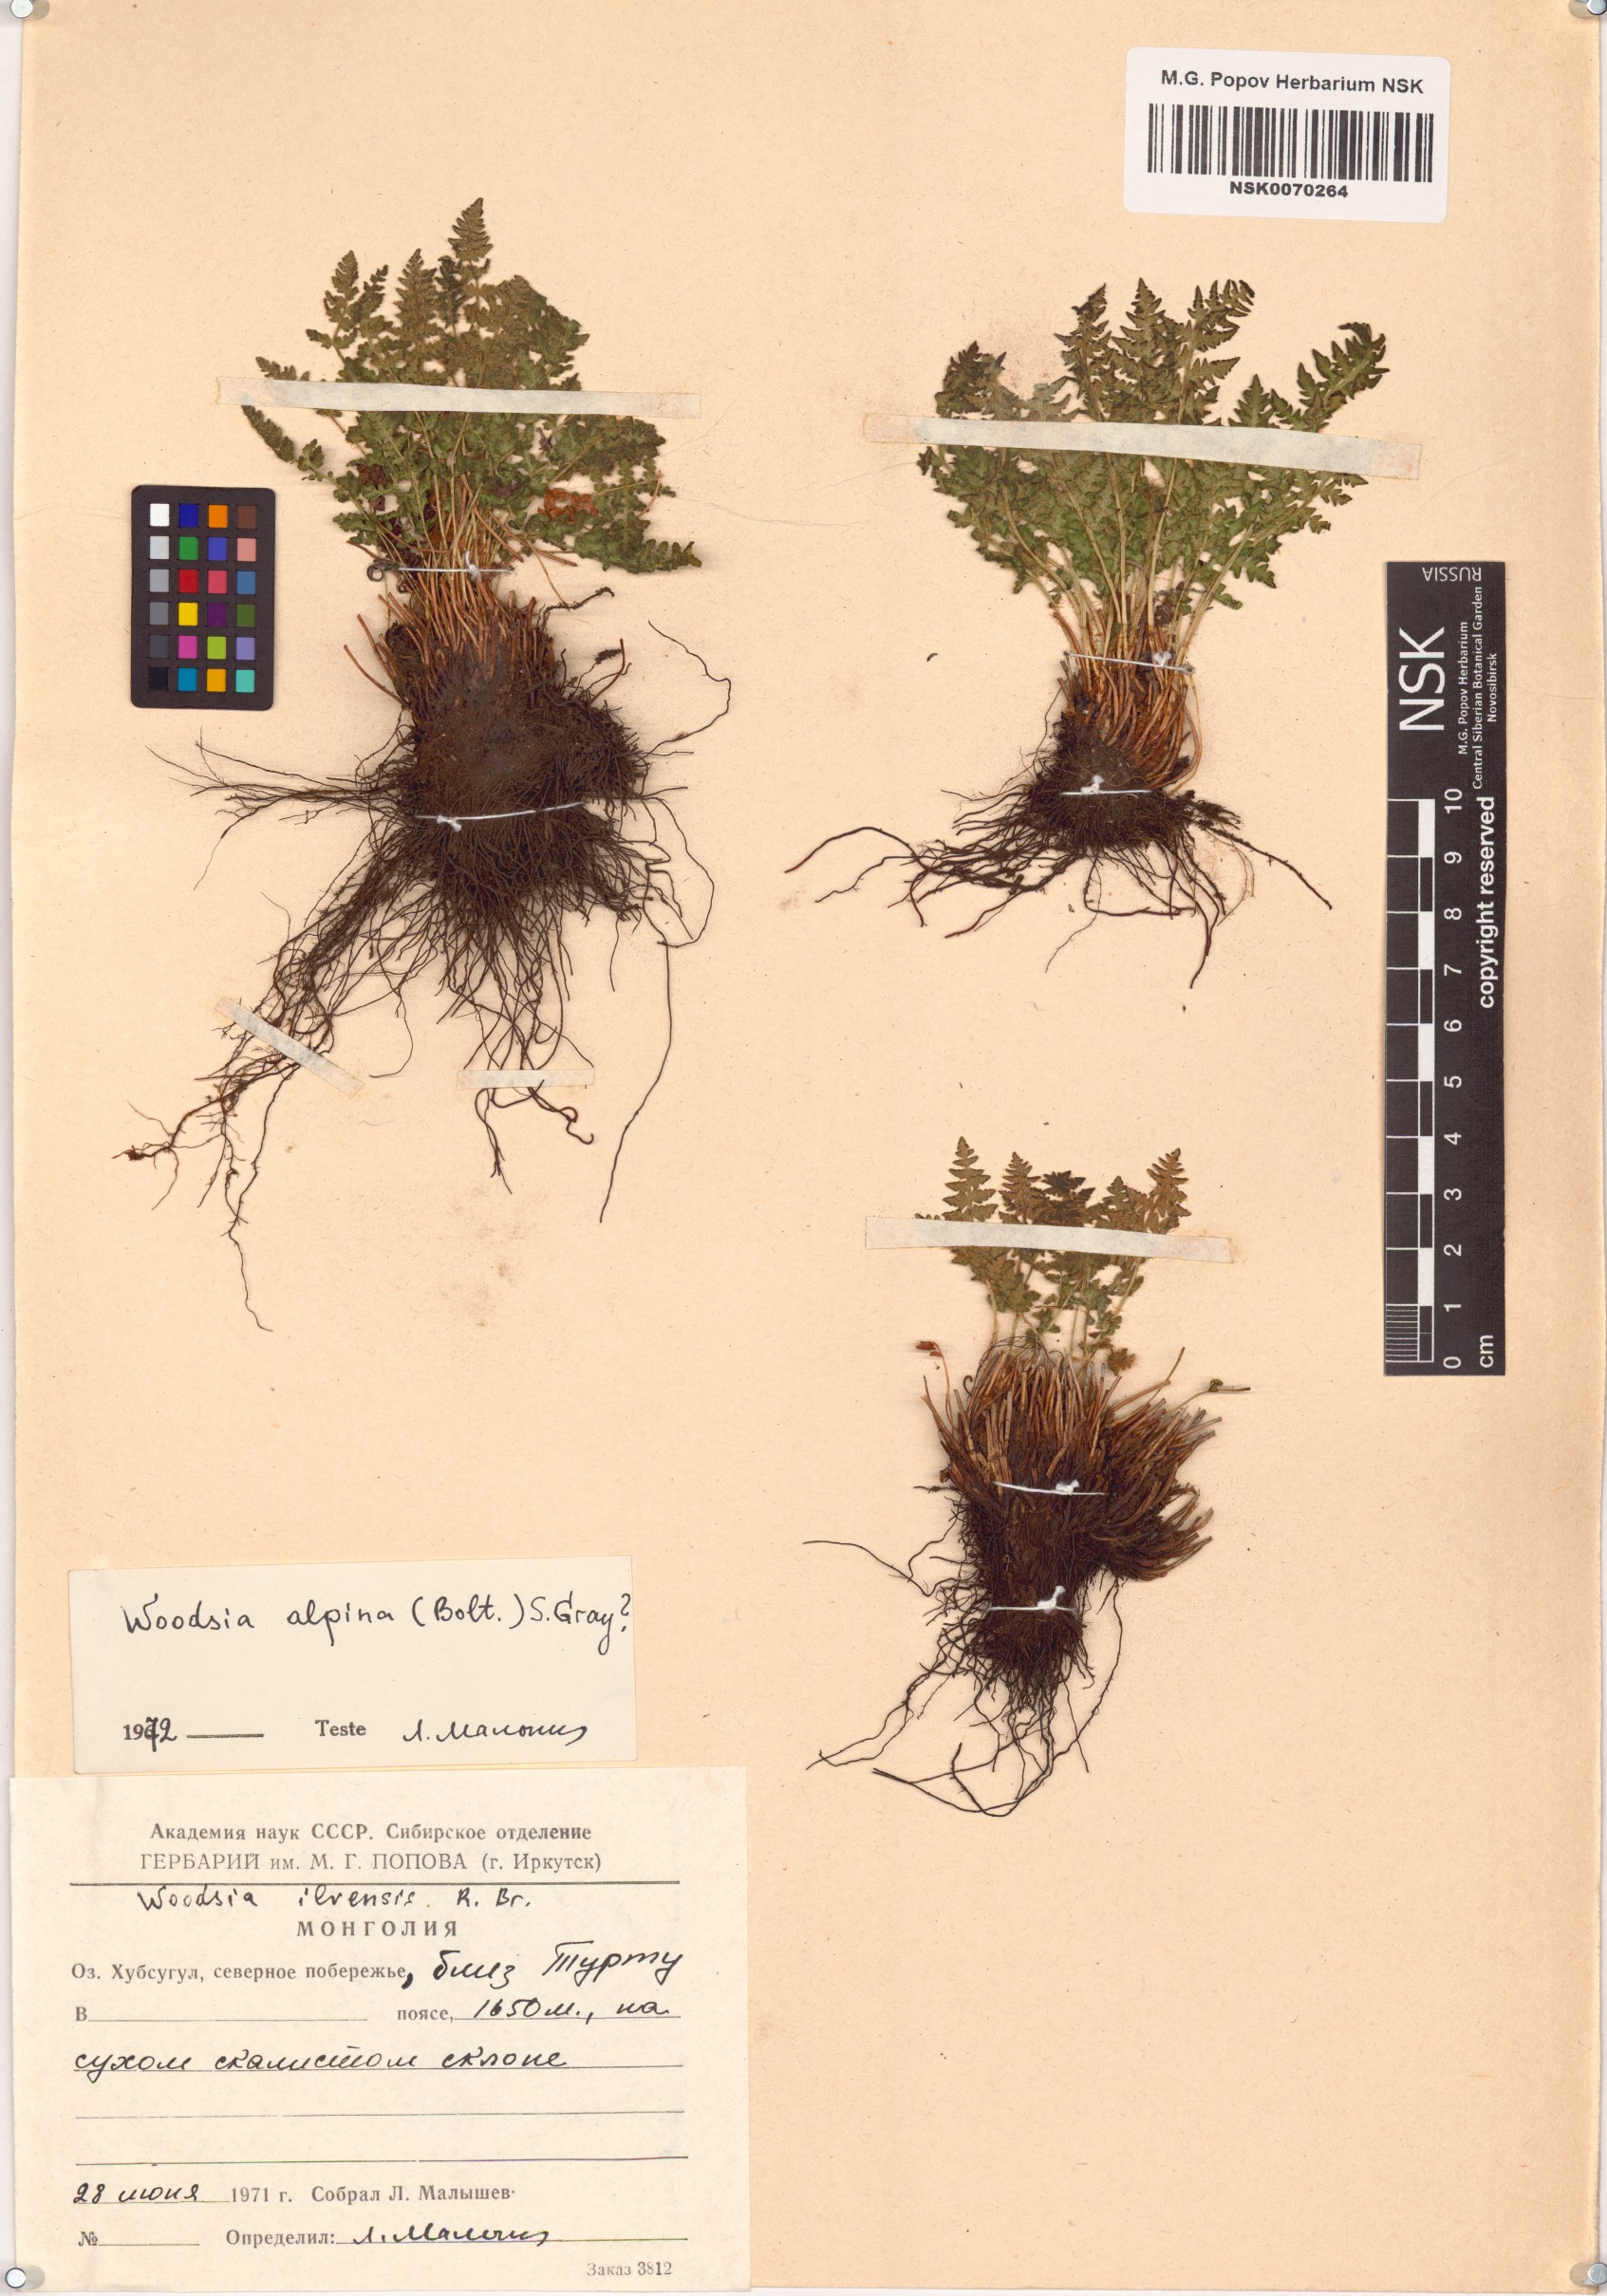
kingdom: Plantae
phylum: Tracheophyta
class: Polypodiopsida
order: Polypodiales
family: Woodsiaceae
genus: Woodsia
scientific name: Woodsia alpina
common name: Alpine woodsia
